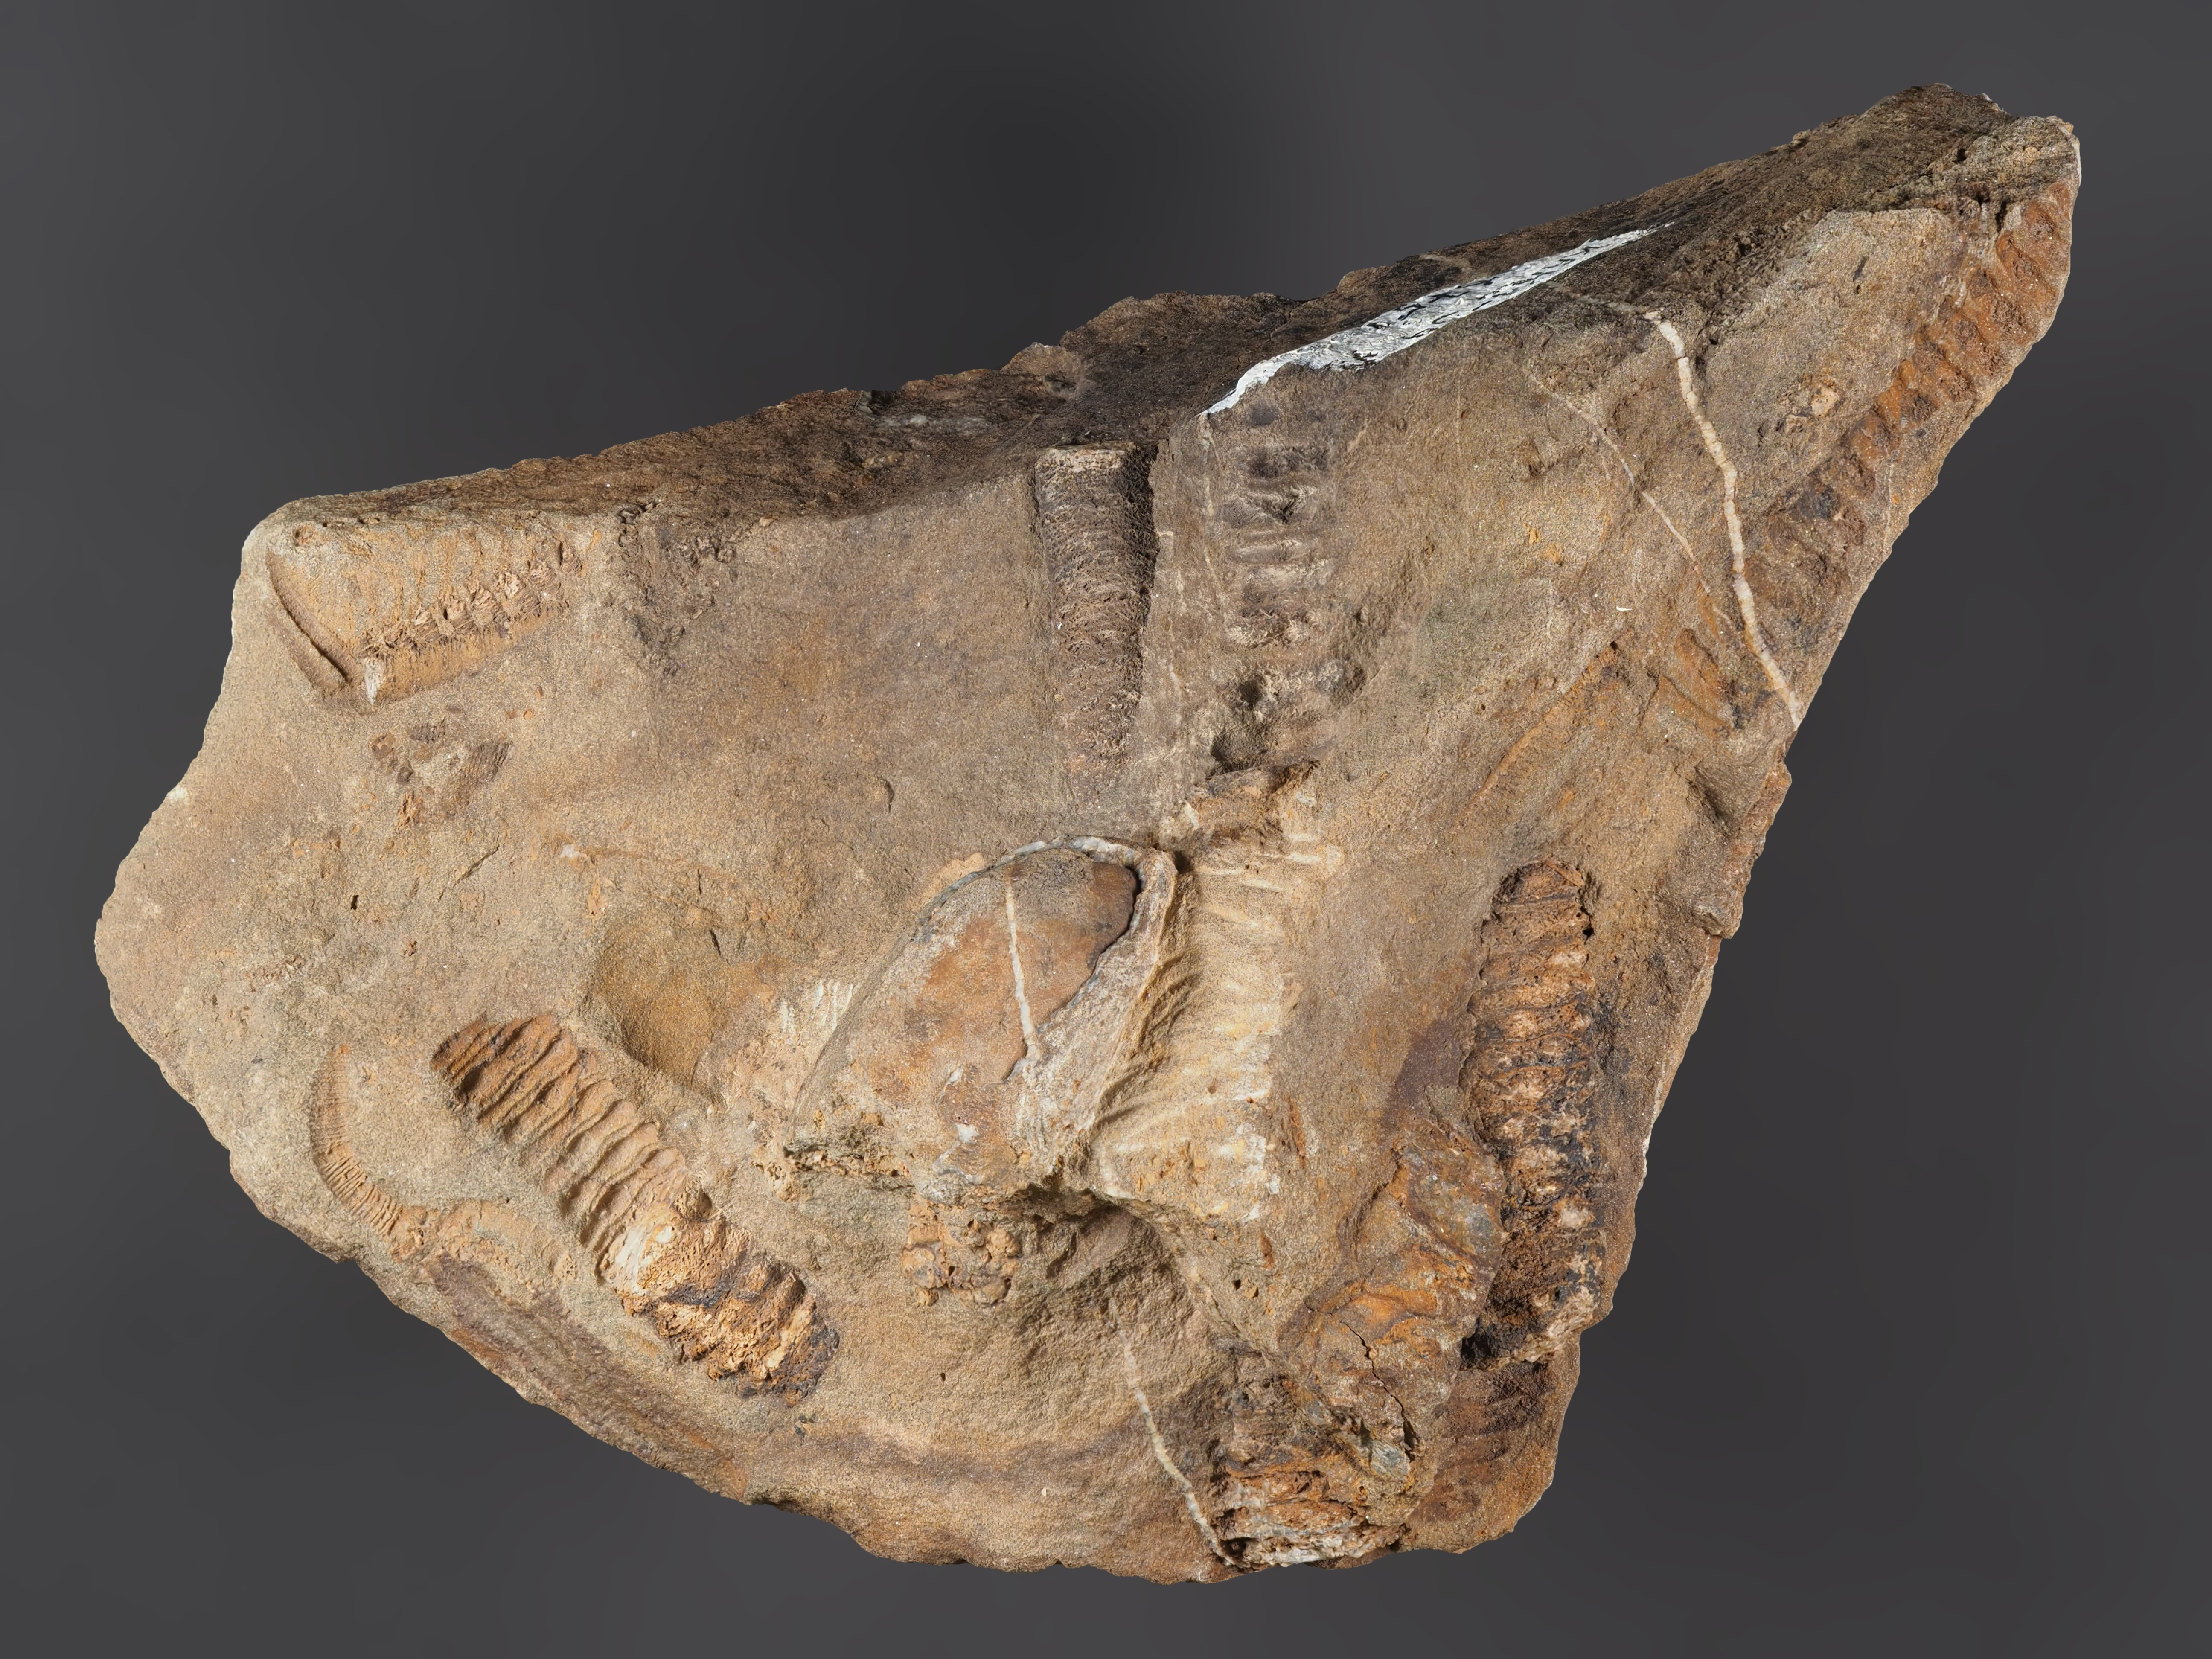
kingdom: Animalia
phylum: Echinodermata
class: Crinoidea
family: Melocrinitidae
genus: Ctenocrinus
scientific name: Ctenocrinus
